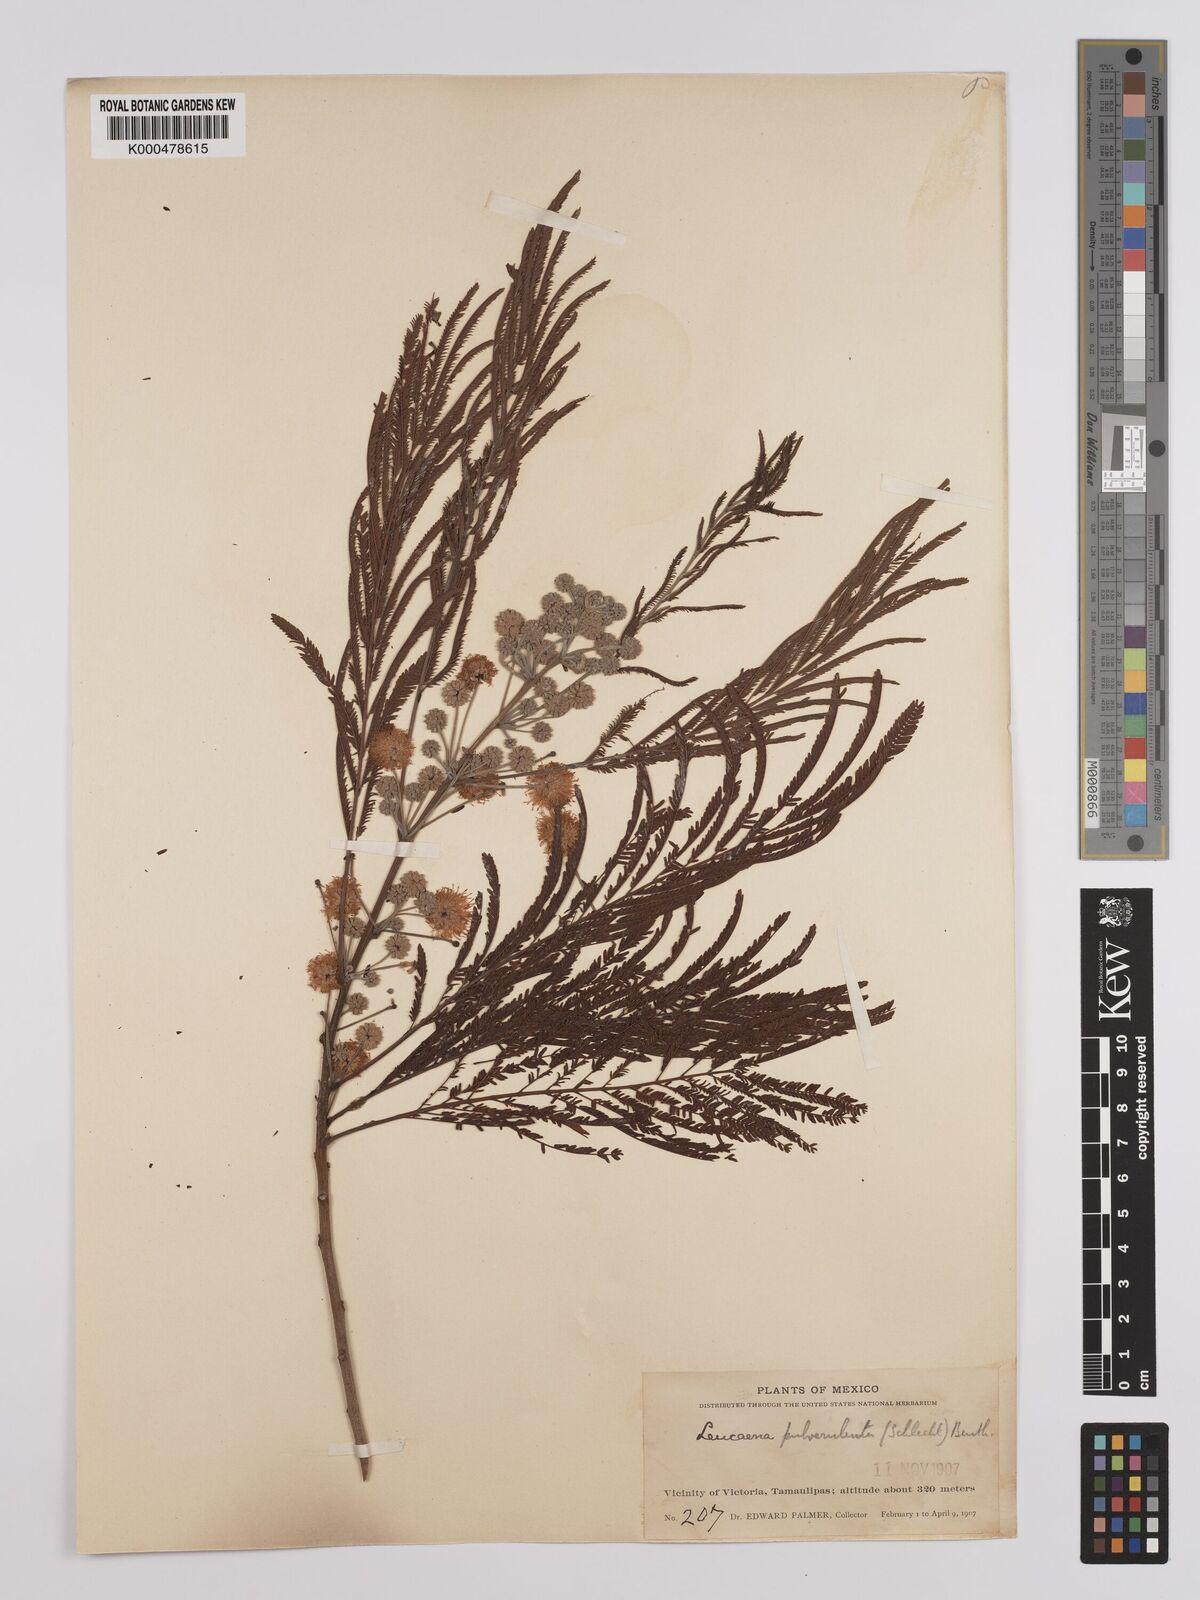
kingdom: Plantae
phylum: Tracheophyta
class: Magnoliopsida
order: Fabales
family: Fabaceae
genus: Leucaena
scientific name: Leucaena pulverulenta
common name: Great leadtree
